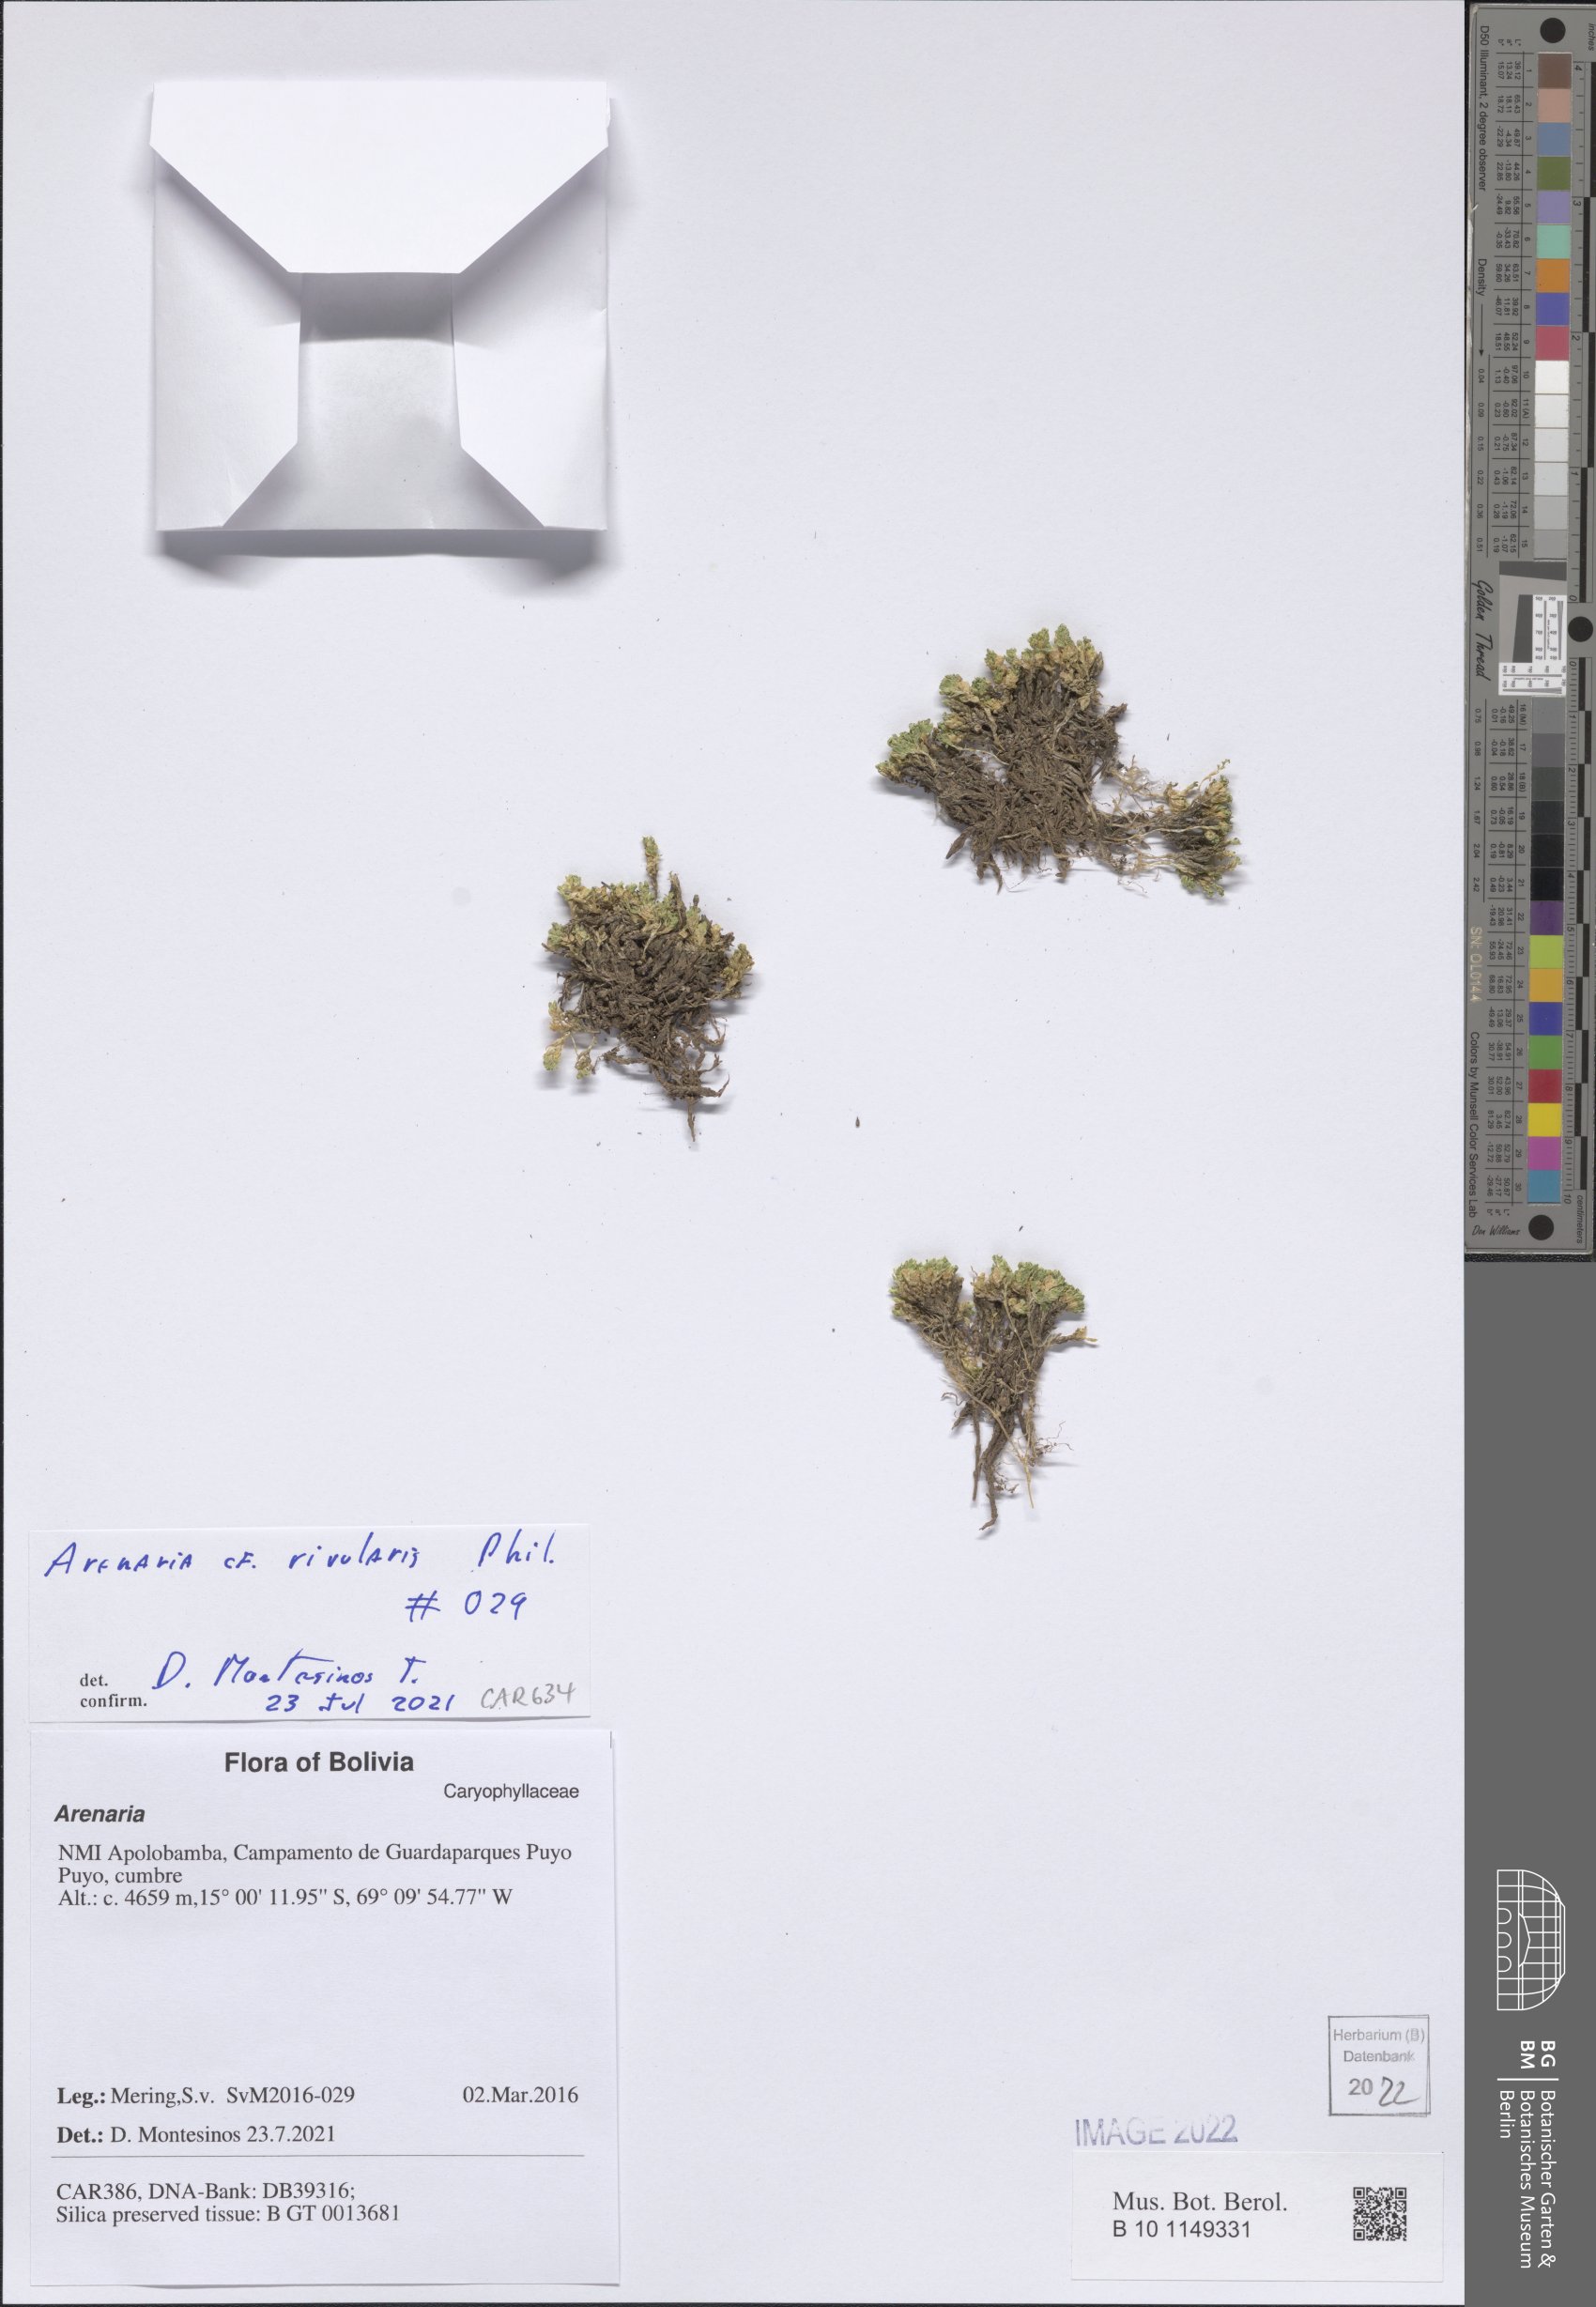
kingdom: Plantae
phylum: Tracheophyta
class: Magnoliopsida
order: Caryophyllales
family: Caryophyllaceae
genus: Arenaria
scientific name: Arenaria rivularis
